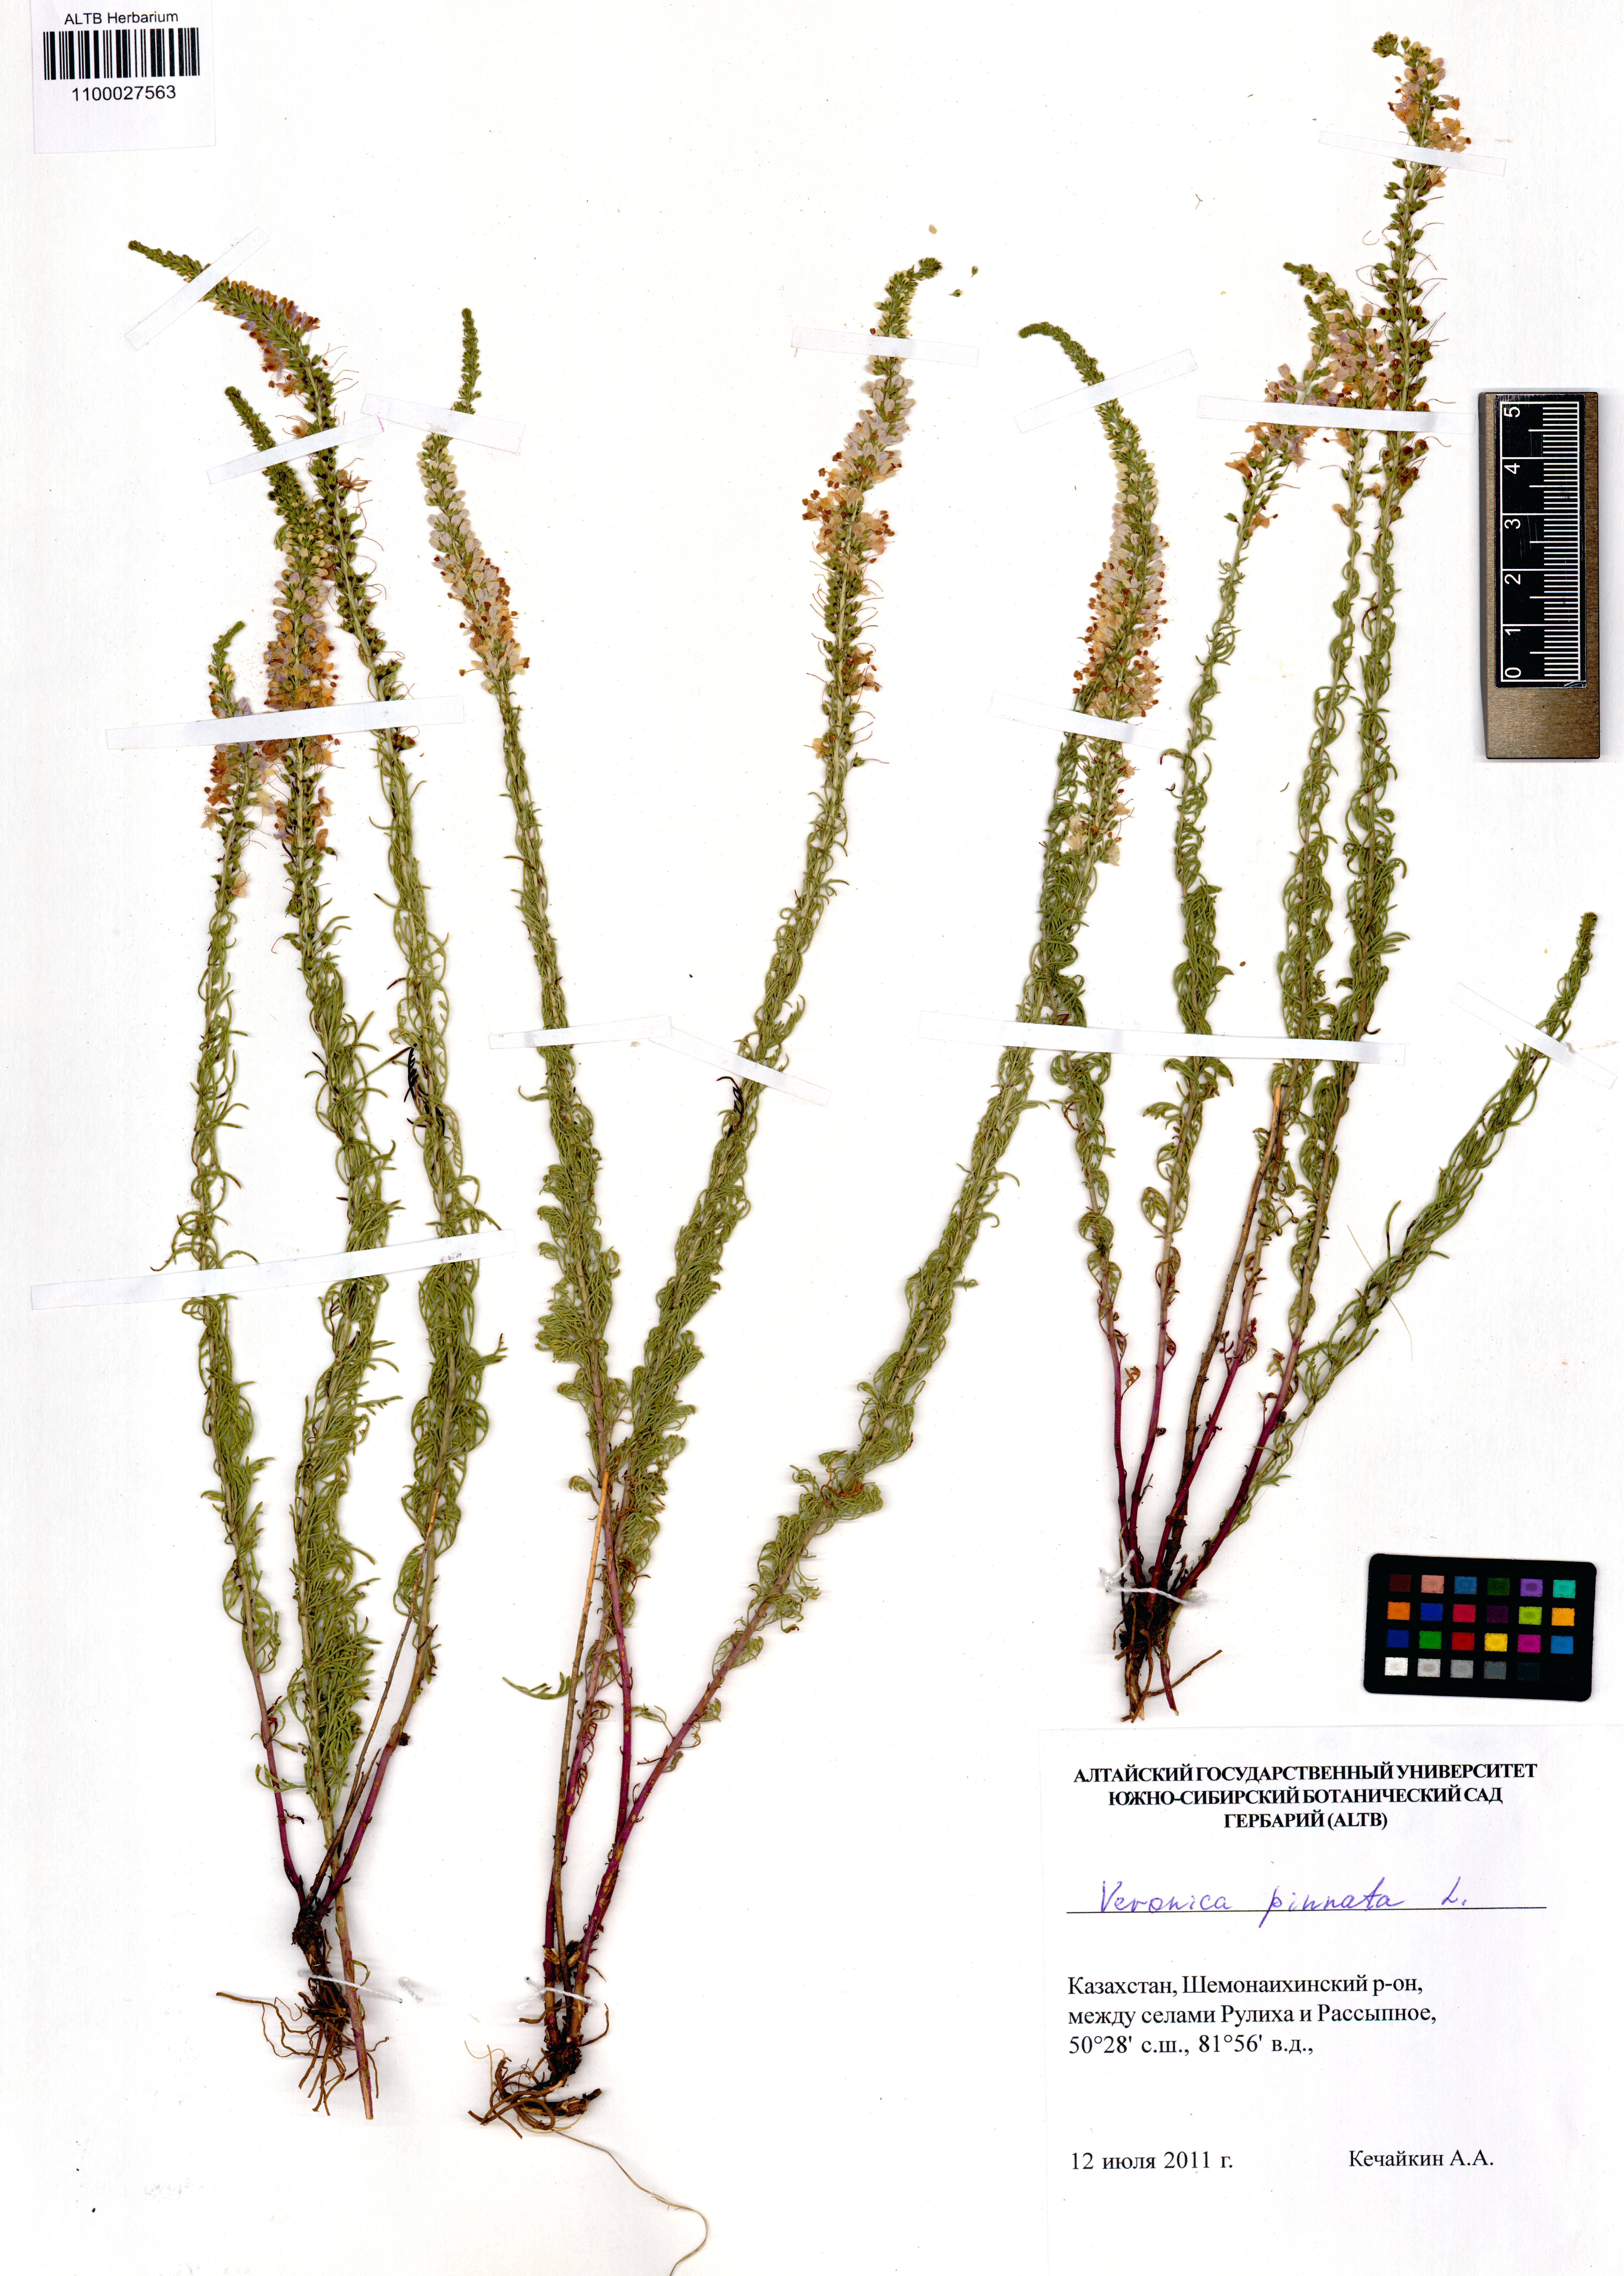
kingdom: Plantae
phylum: Tracheophyta
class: Magnoliopsida
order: Lamiales
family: Plantaginaceae
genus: Veronica
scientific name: Veronica pinnata
